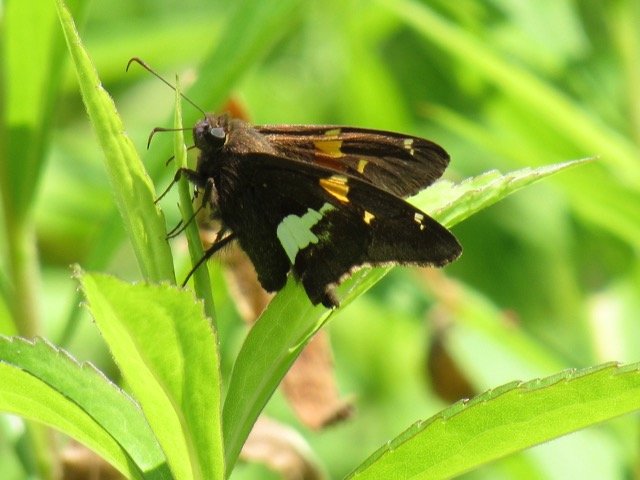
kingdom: Animalia
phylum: Arthropoda
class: Insecta
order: Lepidoptera
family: Hesperiidae
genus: Epargyreus
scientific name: Epargyreus clarus
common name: Silver-spotted Skipper
